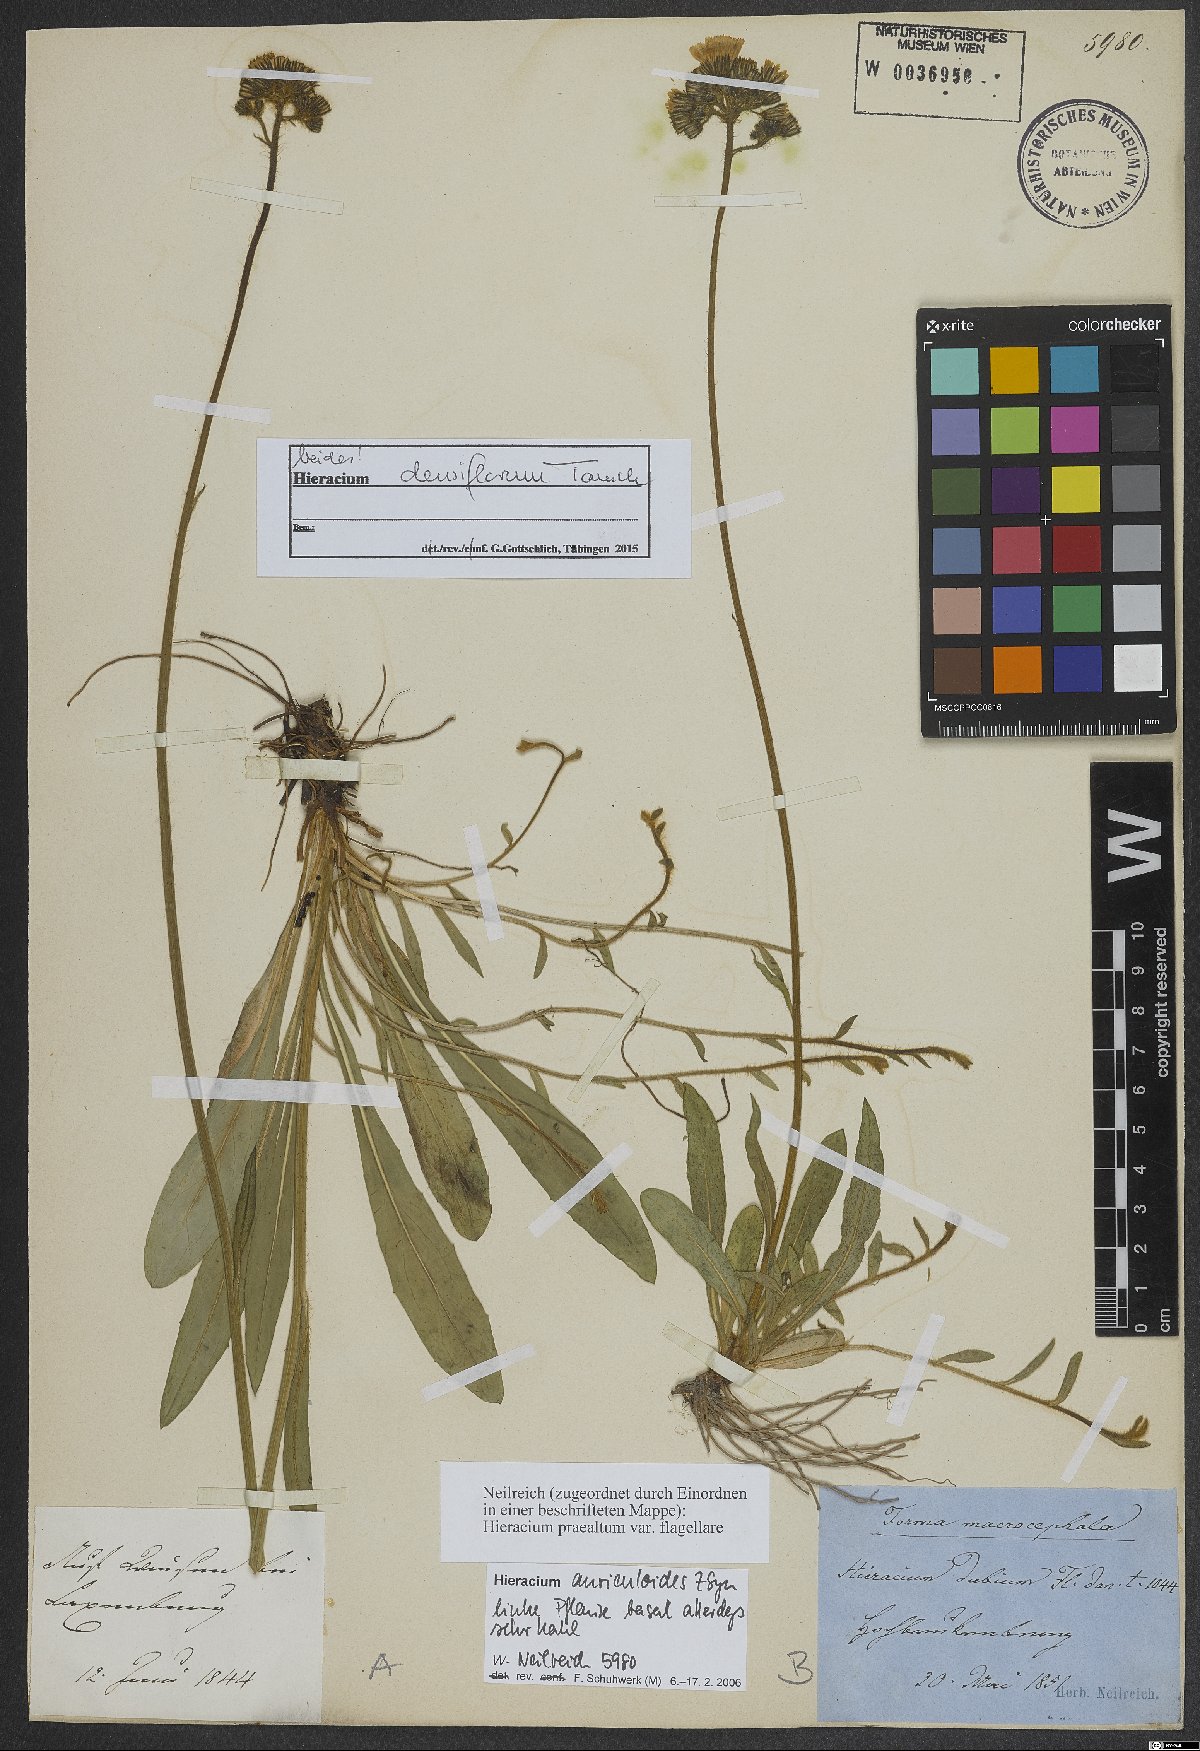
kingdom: Plantae
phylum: Tracheophyta
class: Magnoliopsida
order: Asterales
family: Asteraceae
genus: Pilosella
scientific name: Pilosella densiflora
